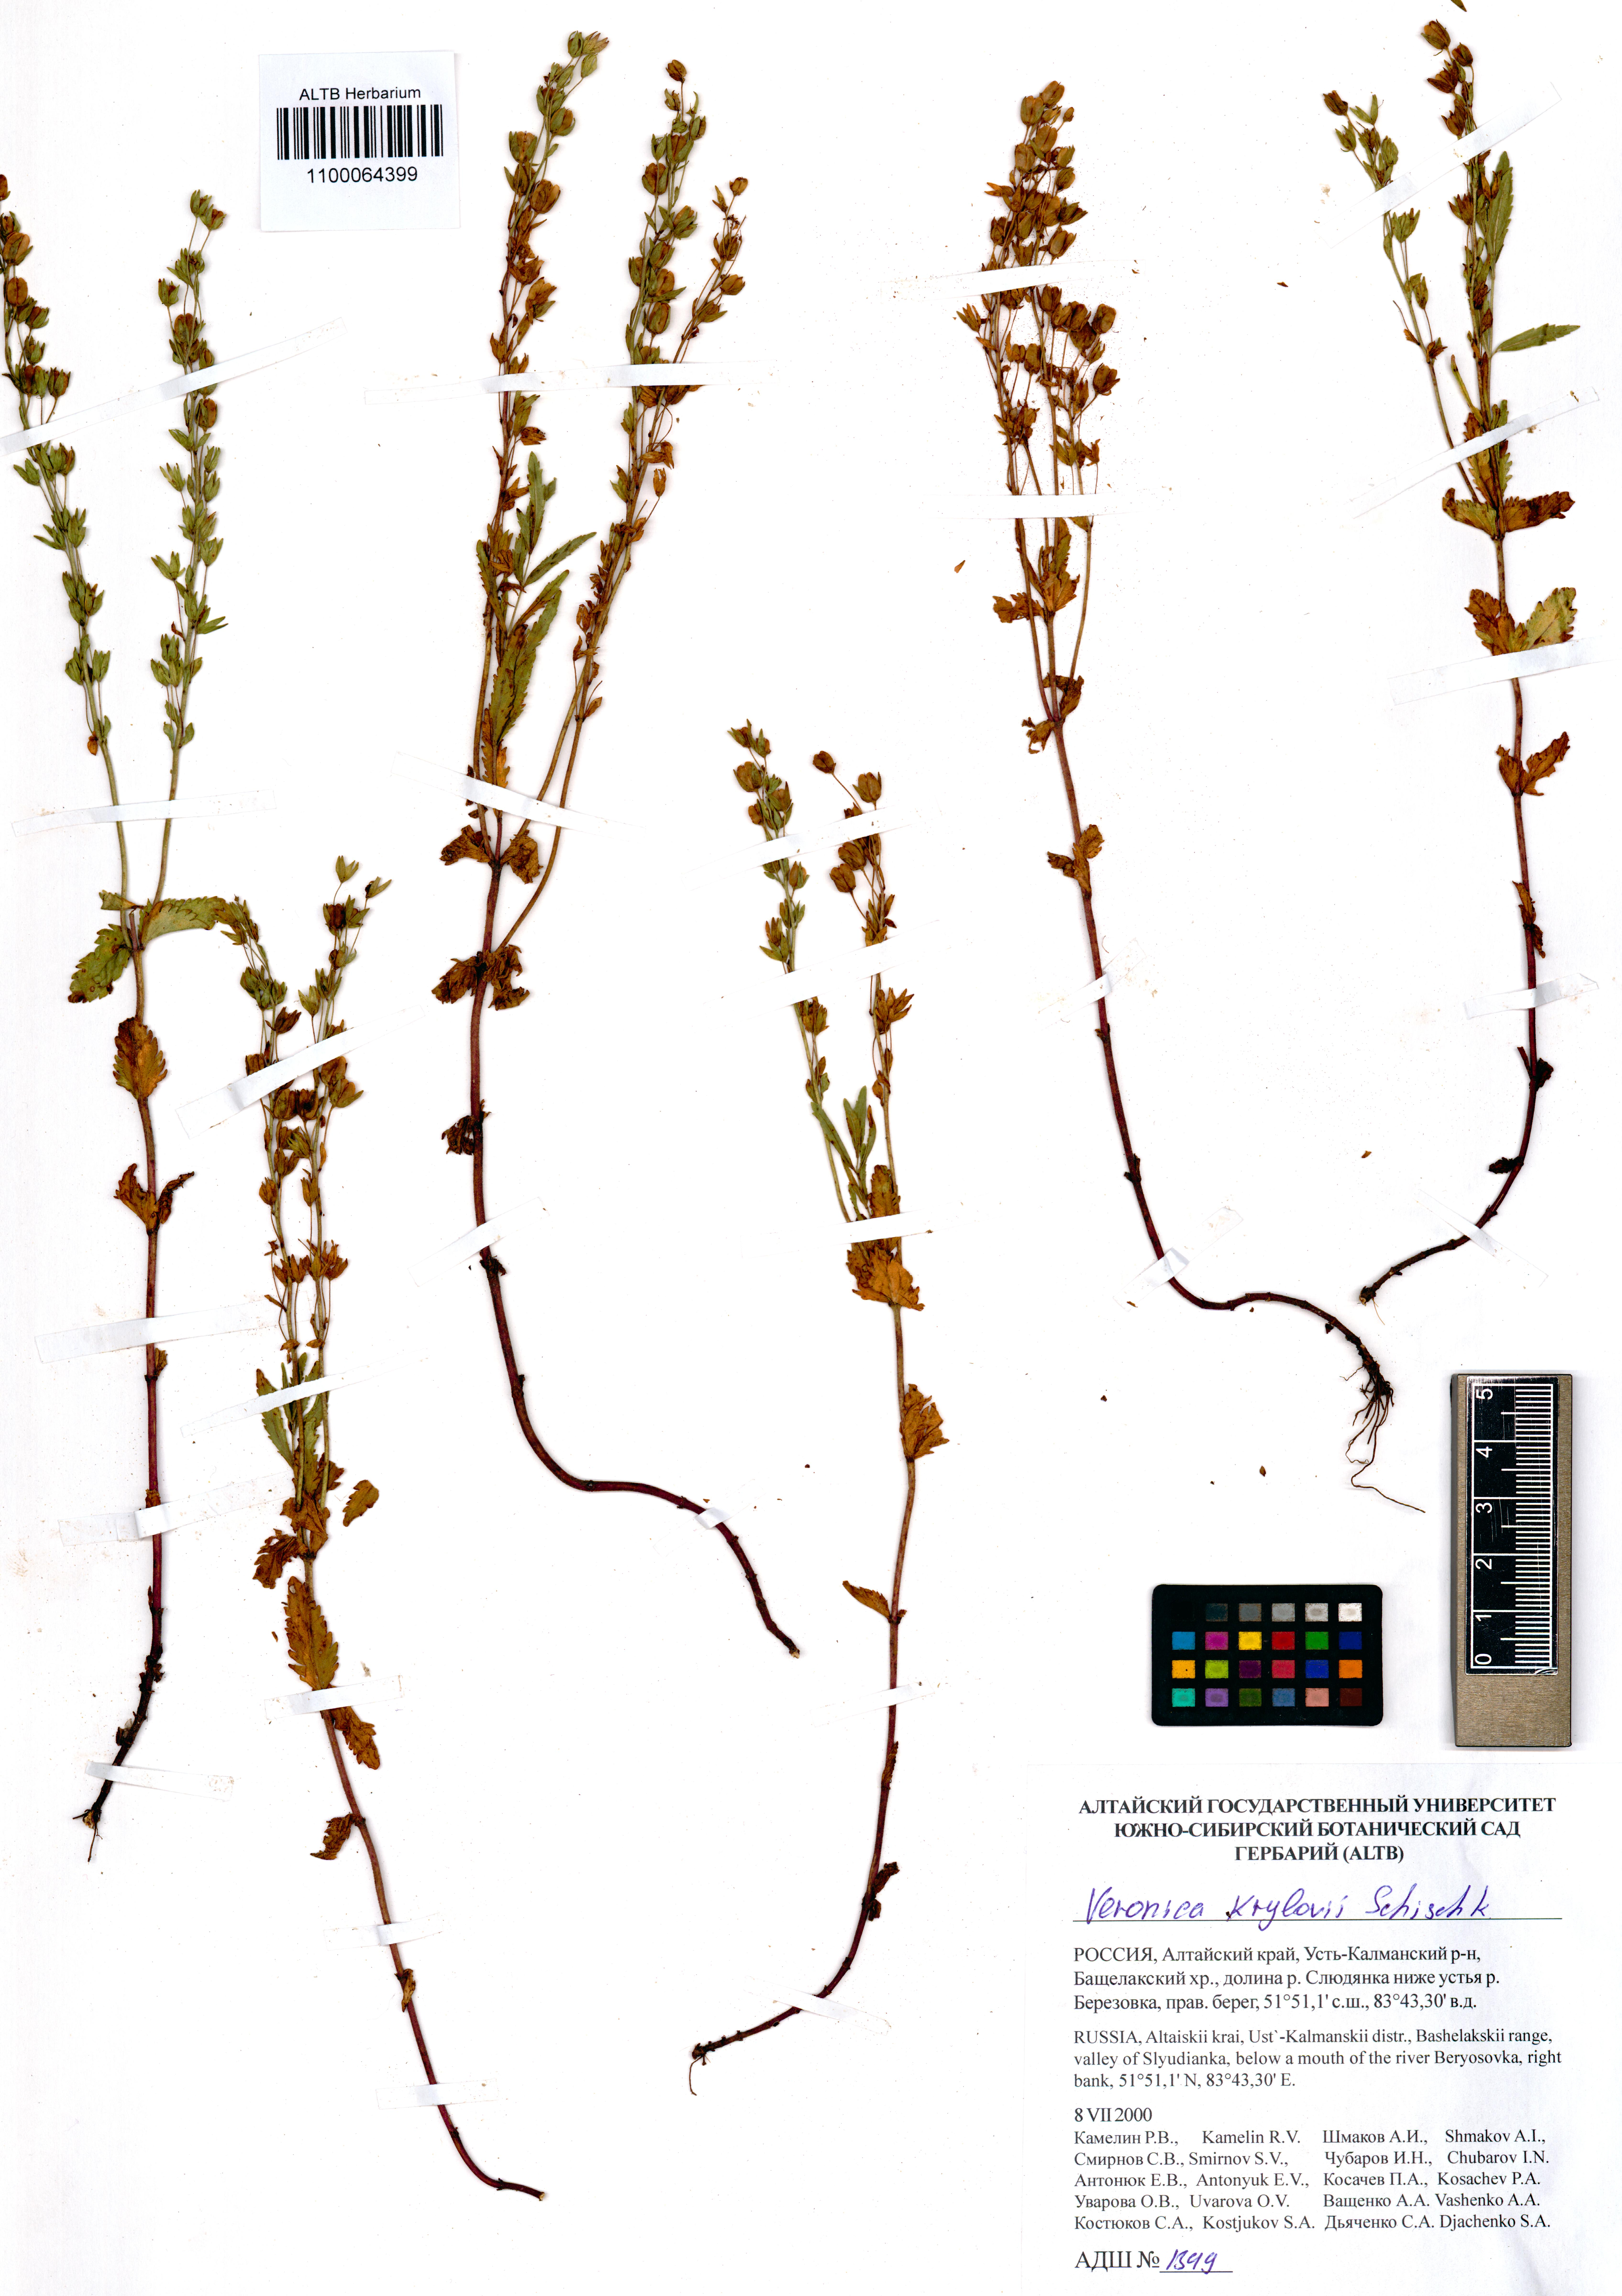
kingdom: Plantae
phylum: Tracheophyta
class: Magnoliopsida
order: Lamiales
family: Plantaginaceae
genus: Veronica
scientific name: Veronica krylovii
